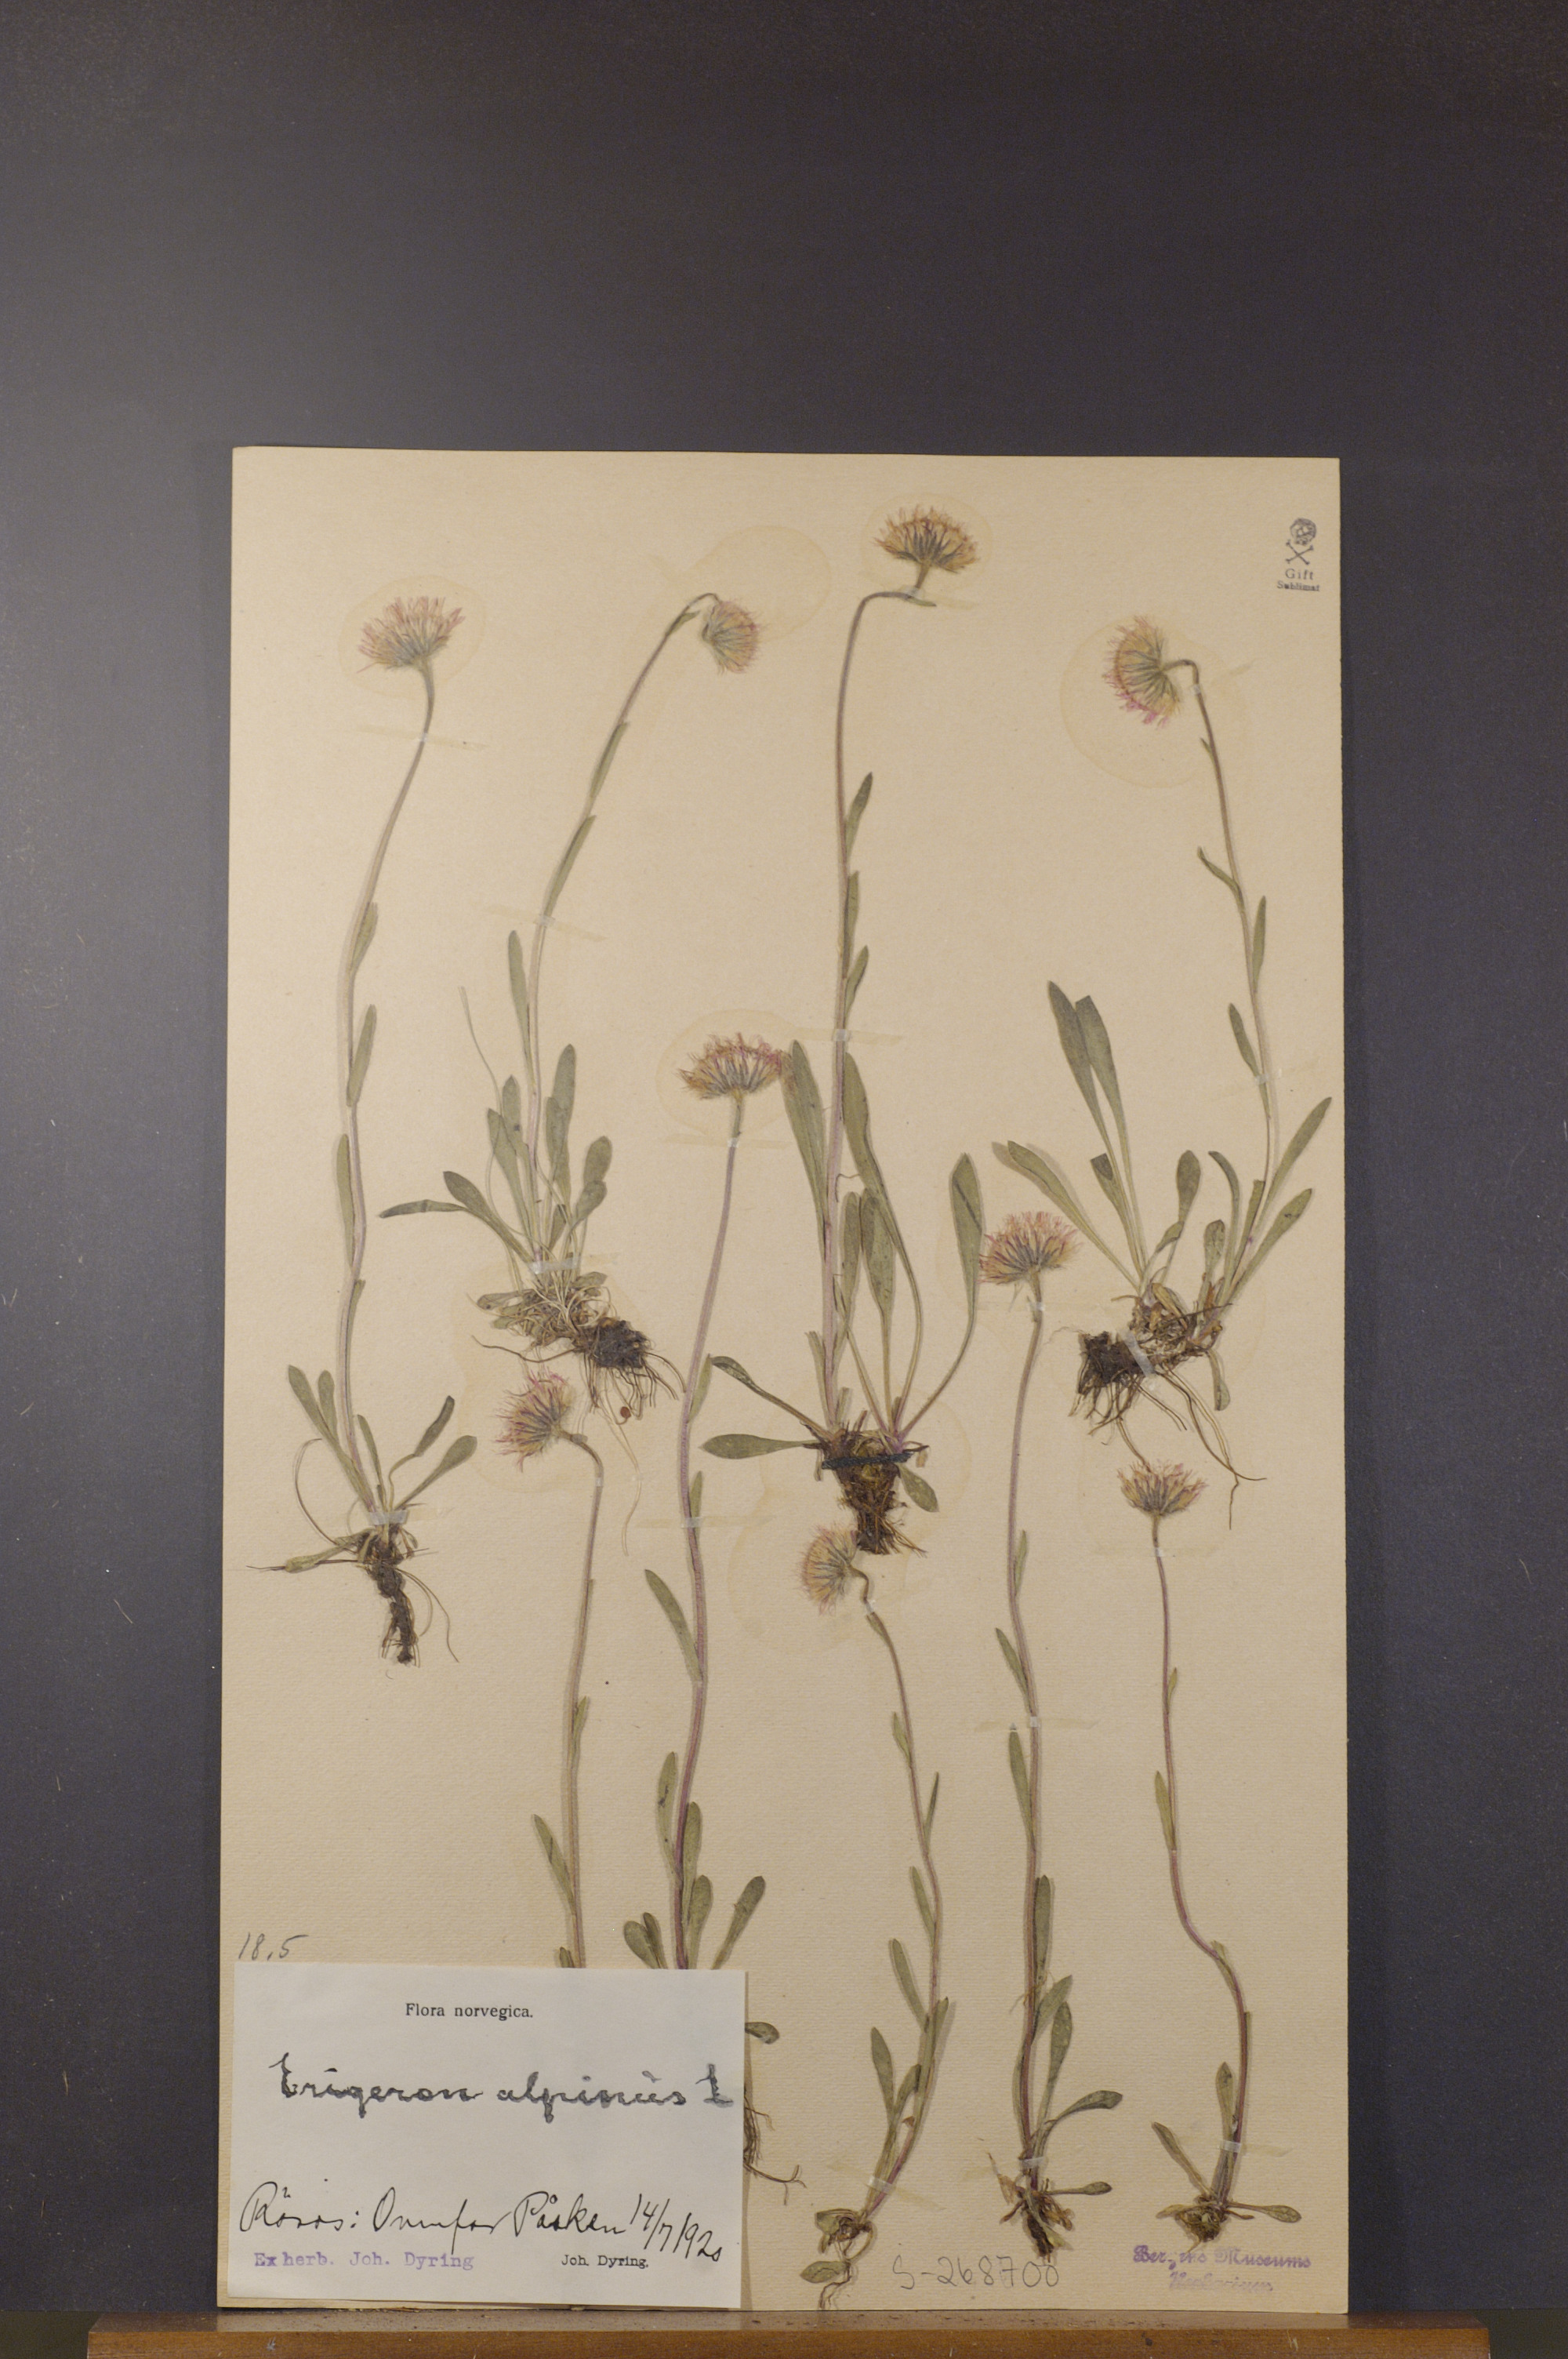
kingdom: Plantae
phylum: Tracheophyta
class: Magnoliopsida
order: Asterales
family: Asteraceae
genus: Erigeron
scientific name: Erigeron alpinus
